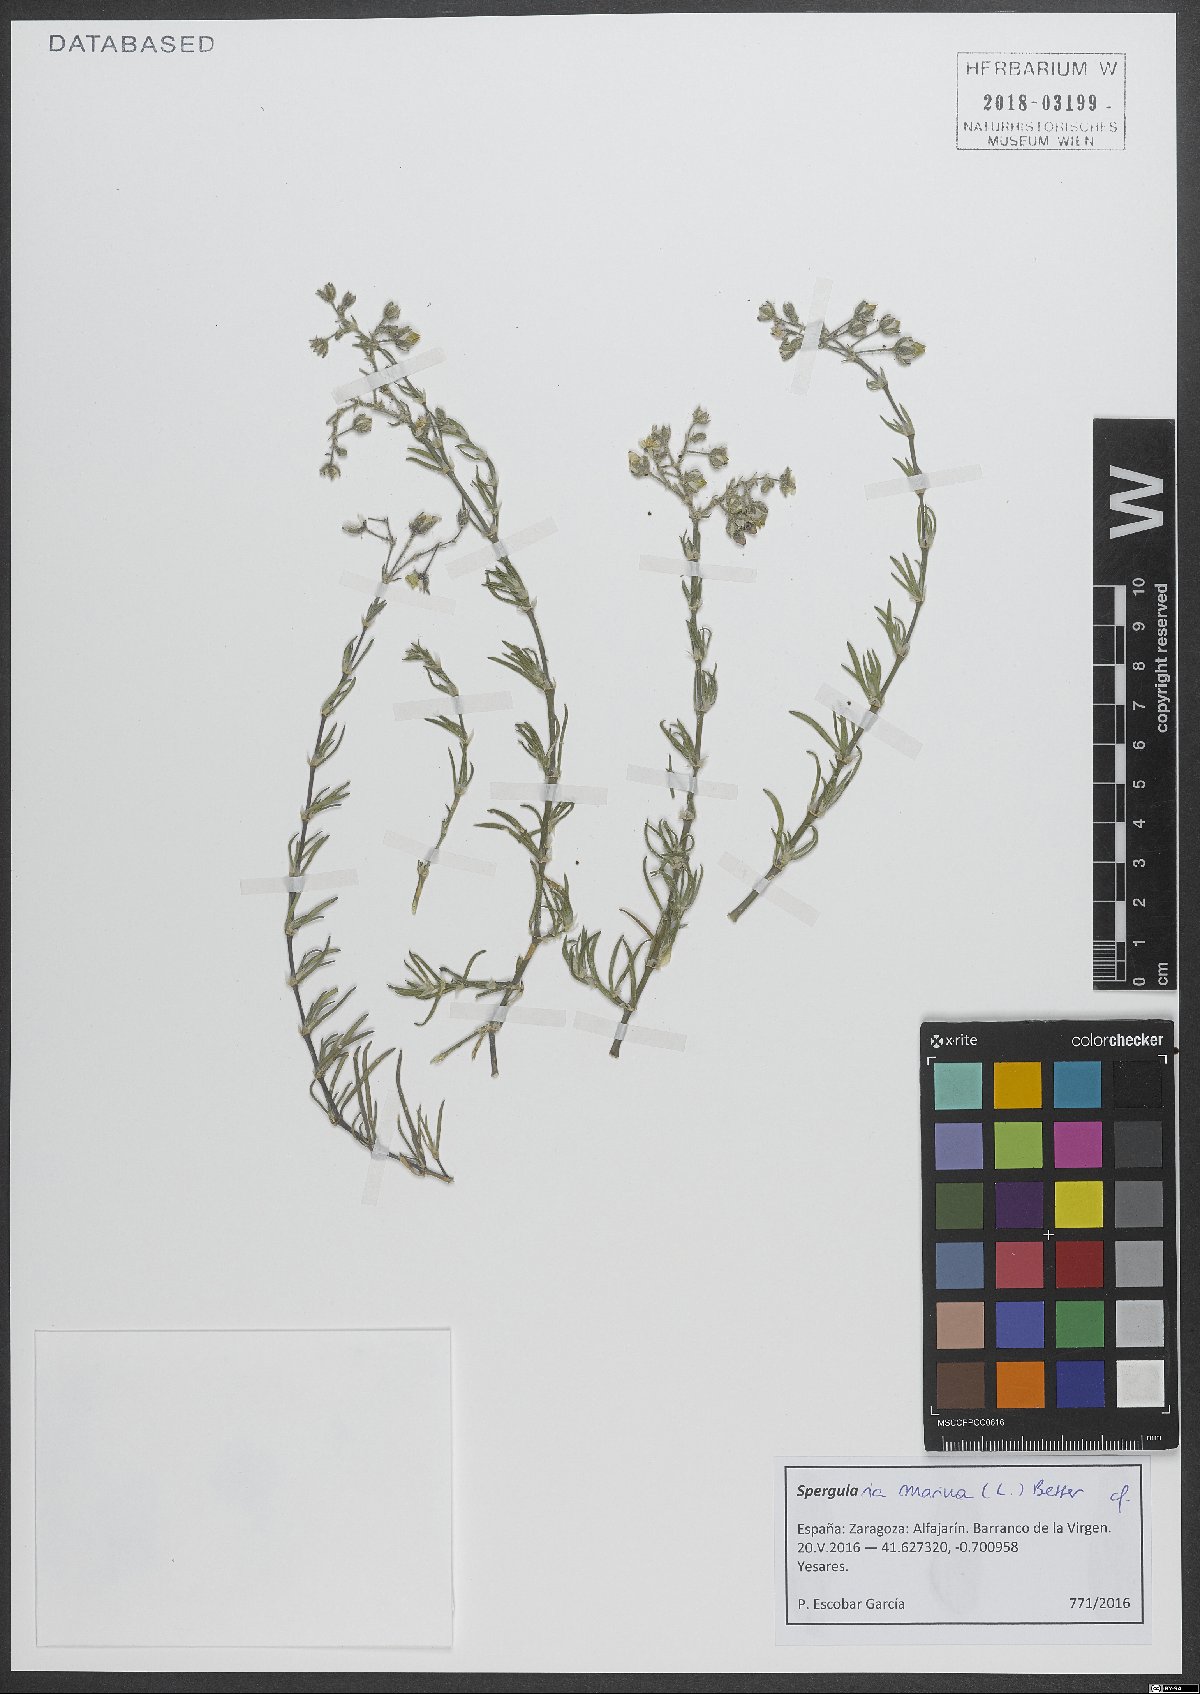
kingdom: Plantae
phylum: Tracheophyta
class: Magnoliopsida
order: Caryophyllales
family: Caryophyllaceae
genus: Spergularia
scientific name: Spergularia marina
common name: Lesser sea-spurrey
